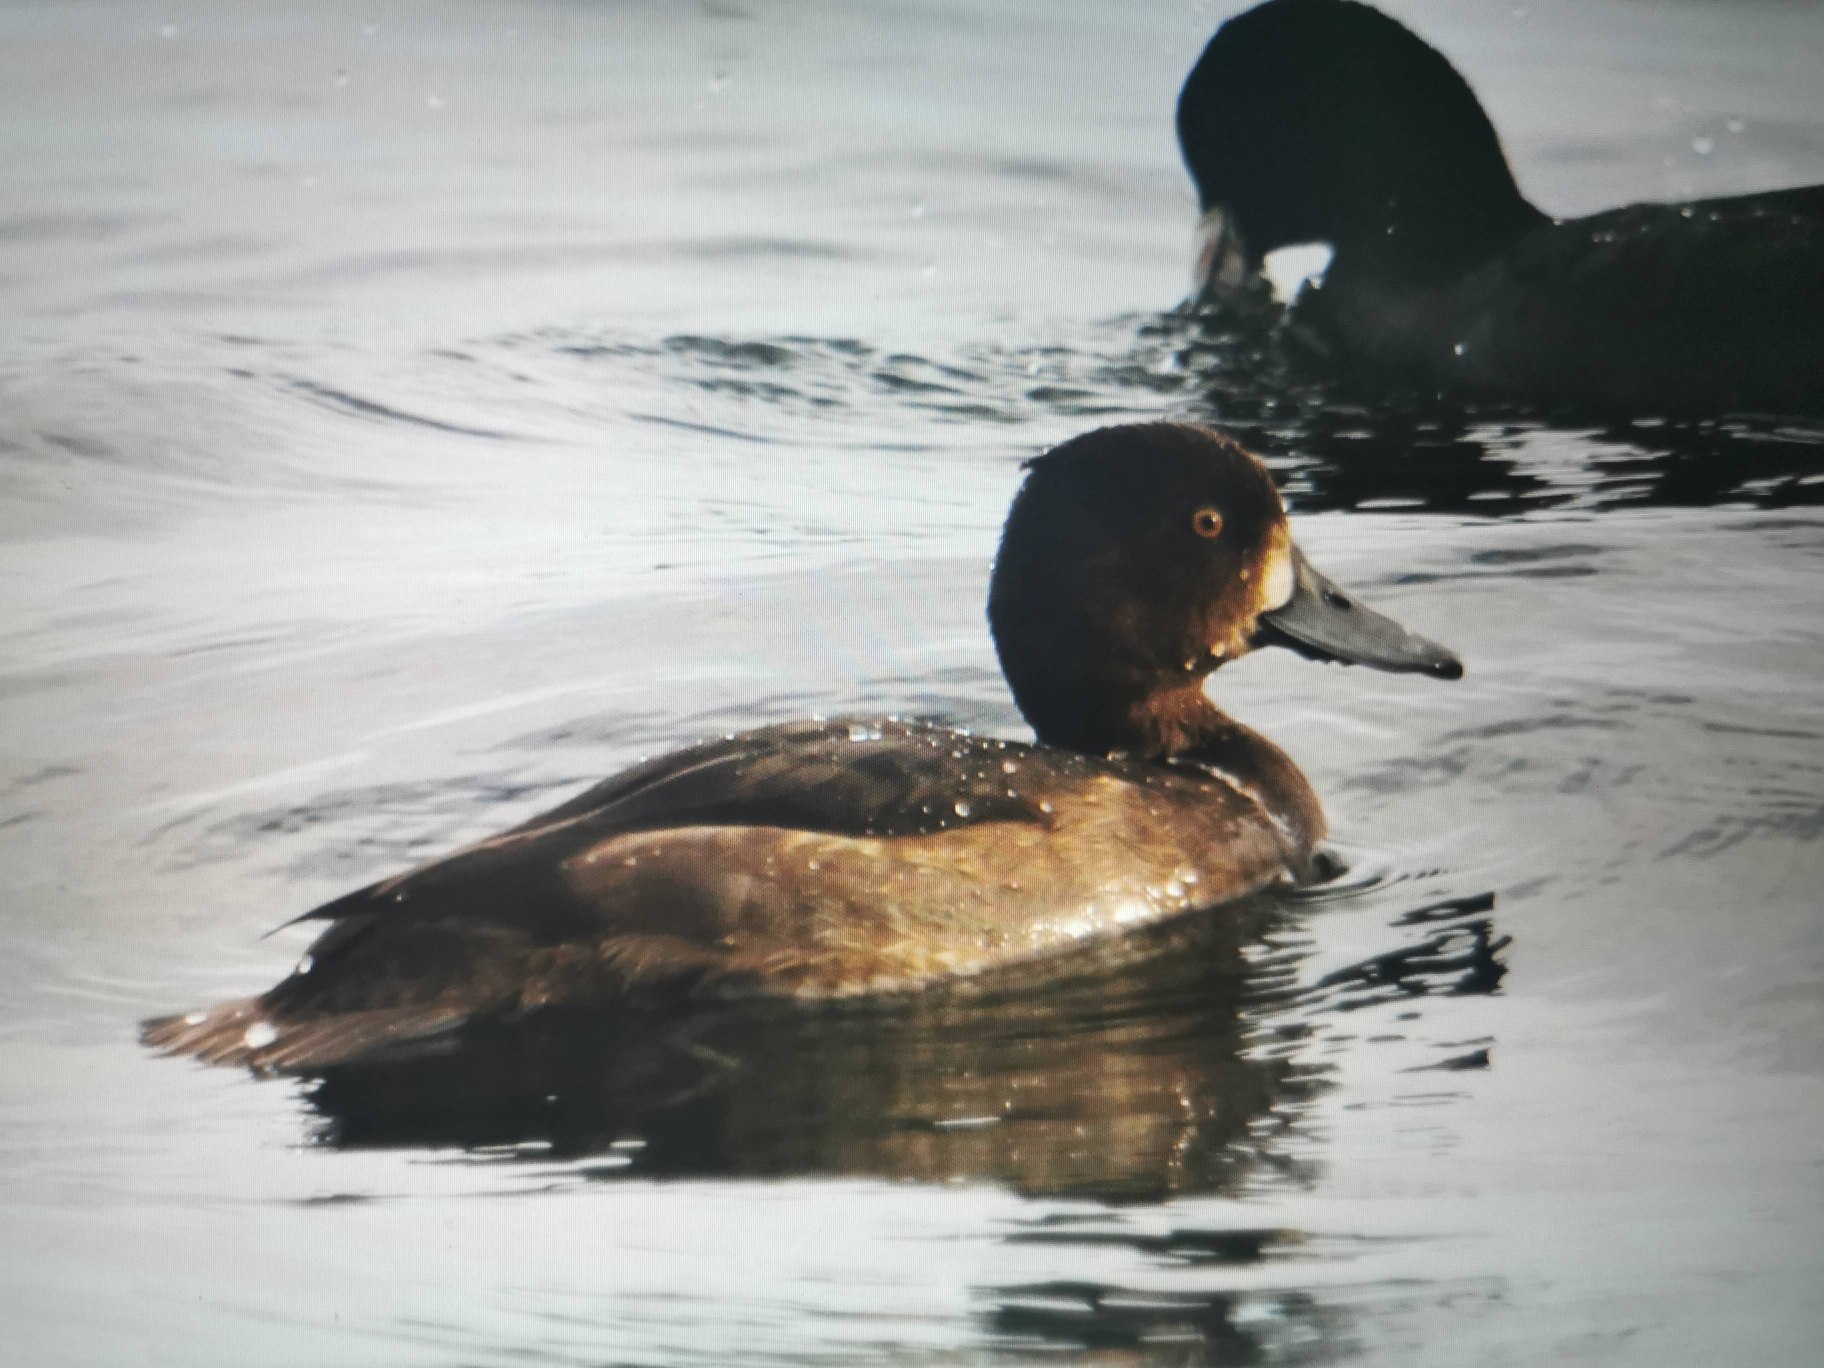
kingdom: Animalia
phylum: Chordata
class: Aves
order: Anseriformes
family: Anatidae
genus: Aythya
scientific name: Aythya fuligula
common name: Troldand
